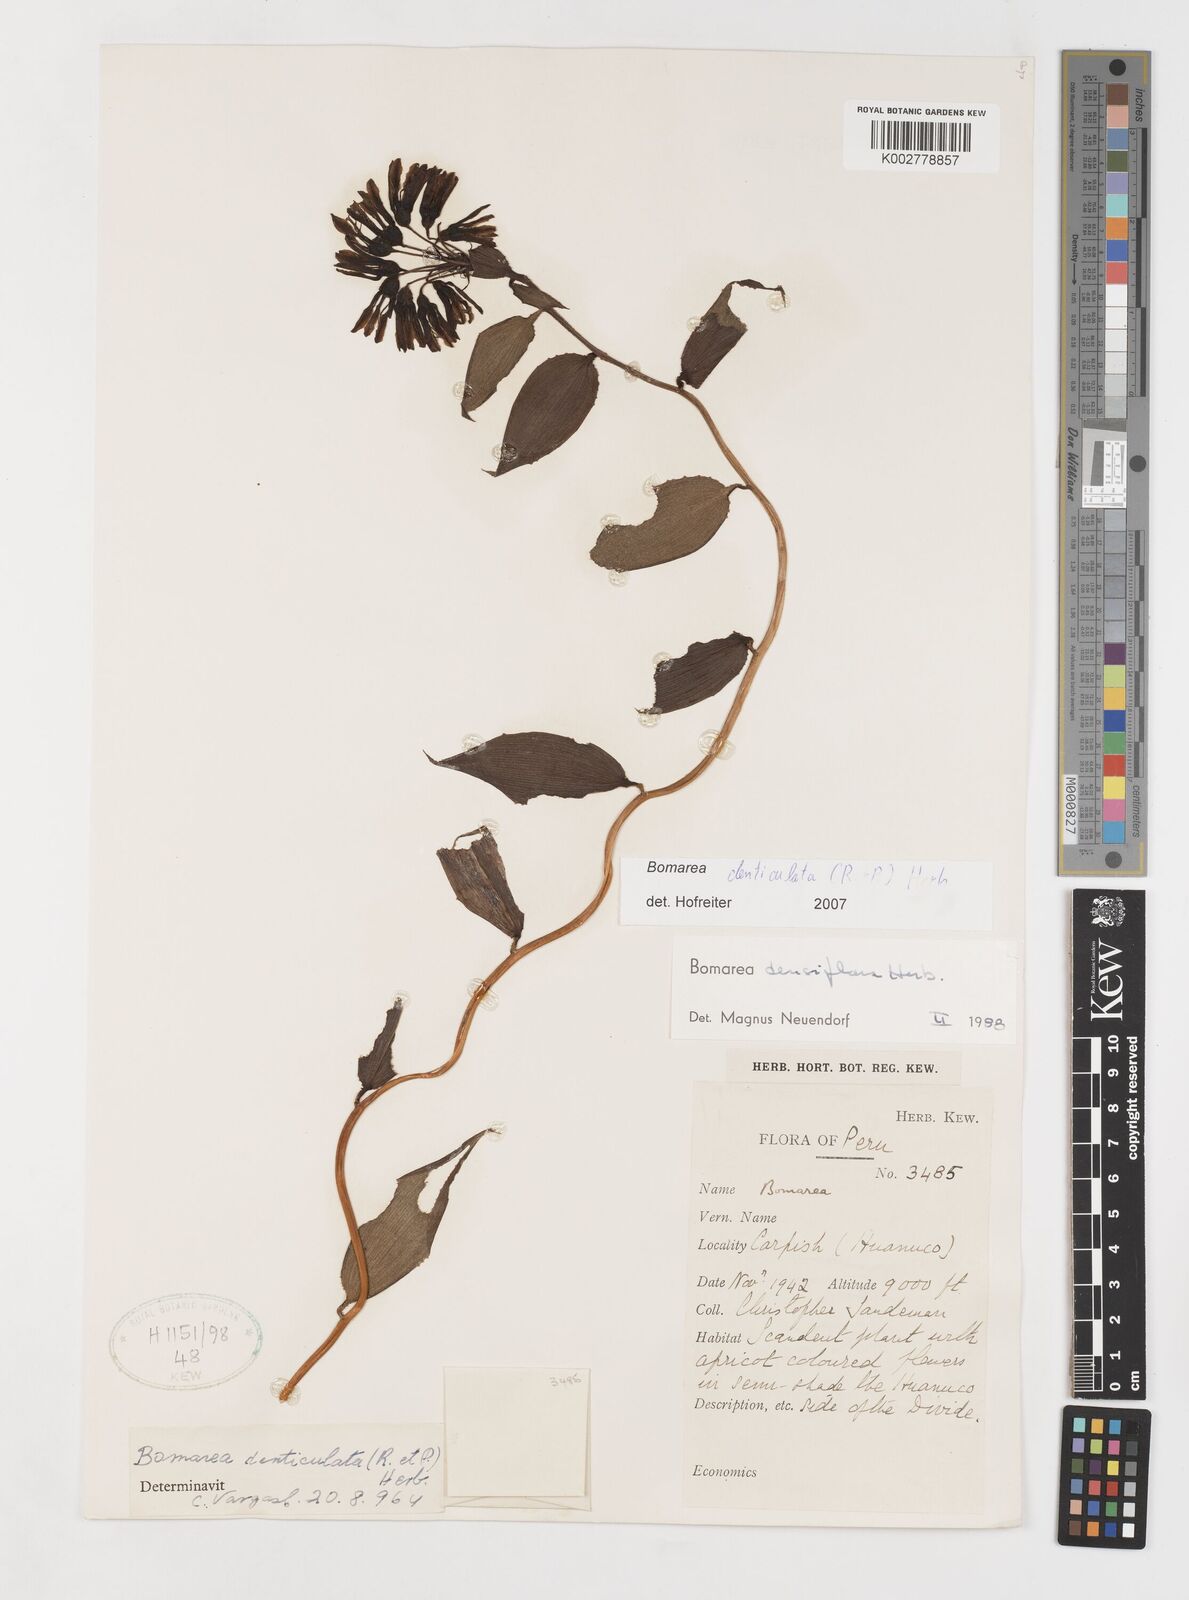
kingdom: Plantae
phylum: Tracheophyta
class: Liliopsida
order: Liliales
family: Alstroemeriaceae
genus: Bomarea
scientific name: Bomarea denticulata
